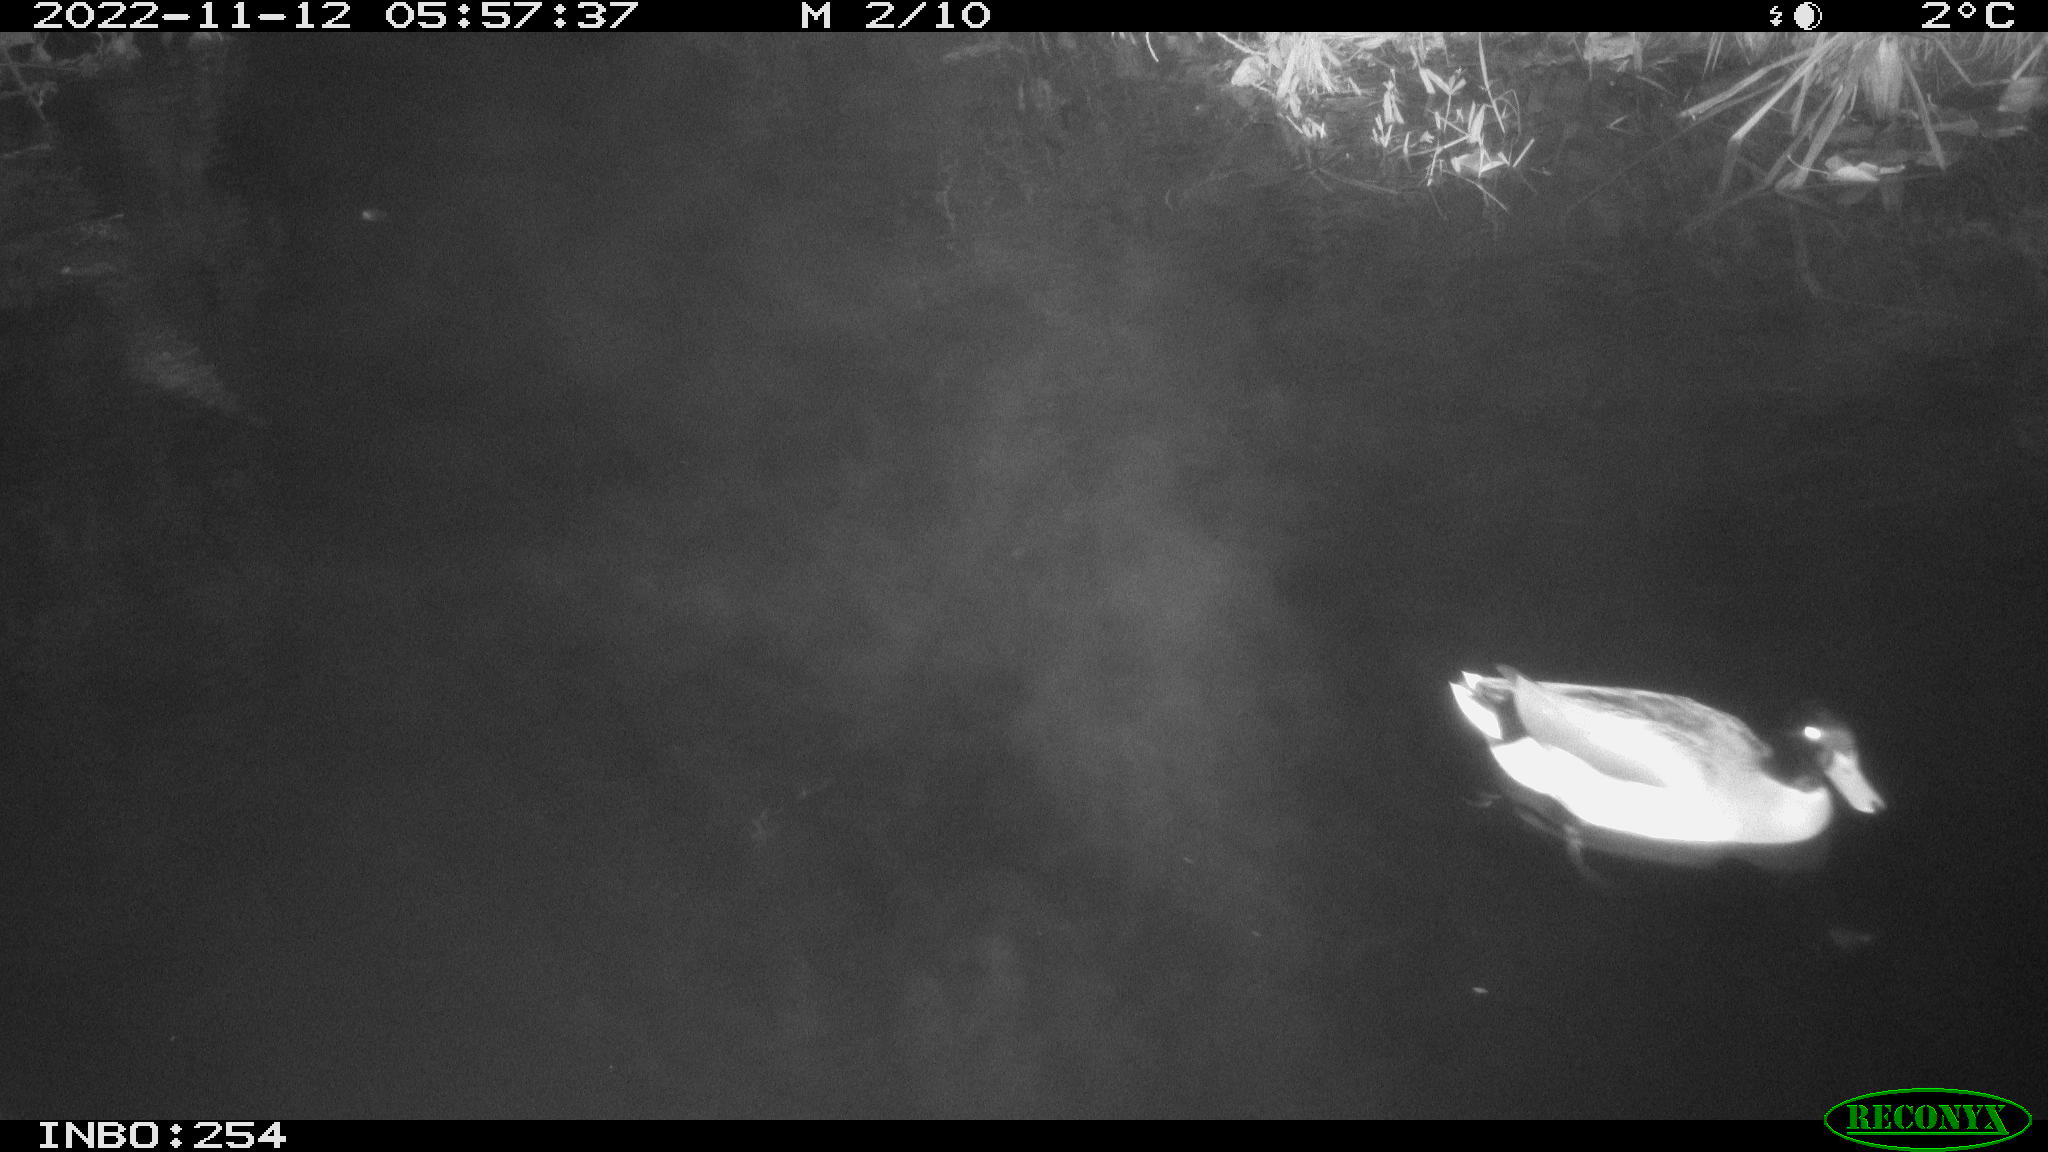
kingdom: Animalia
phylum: Chordata
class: Aves
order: Anseriformes
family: Anatidae
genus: Anas
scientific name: Anas
